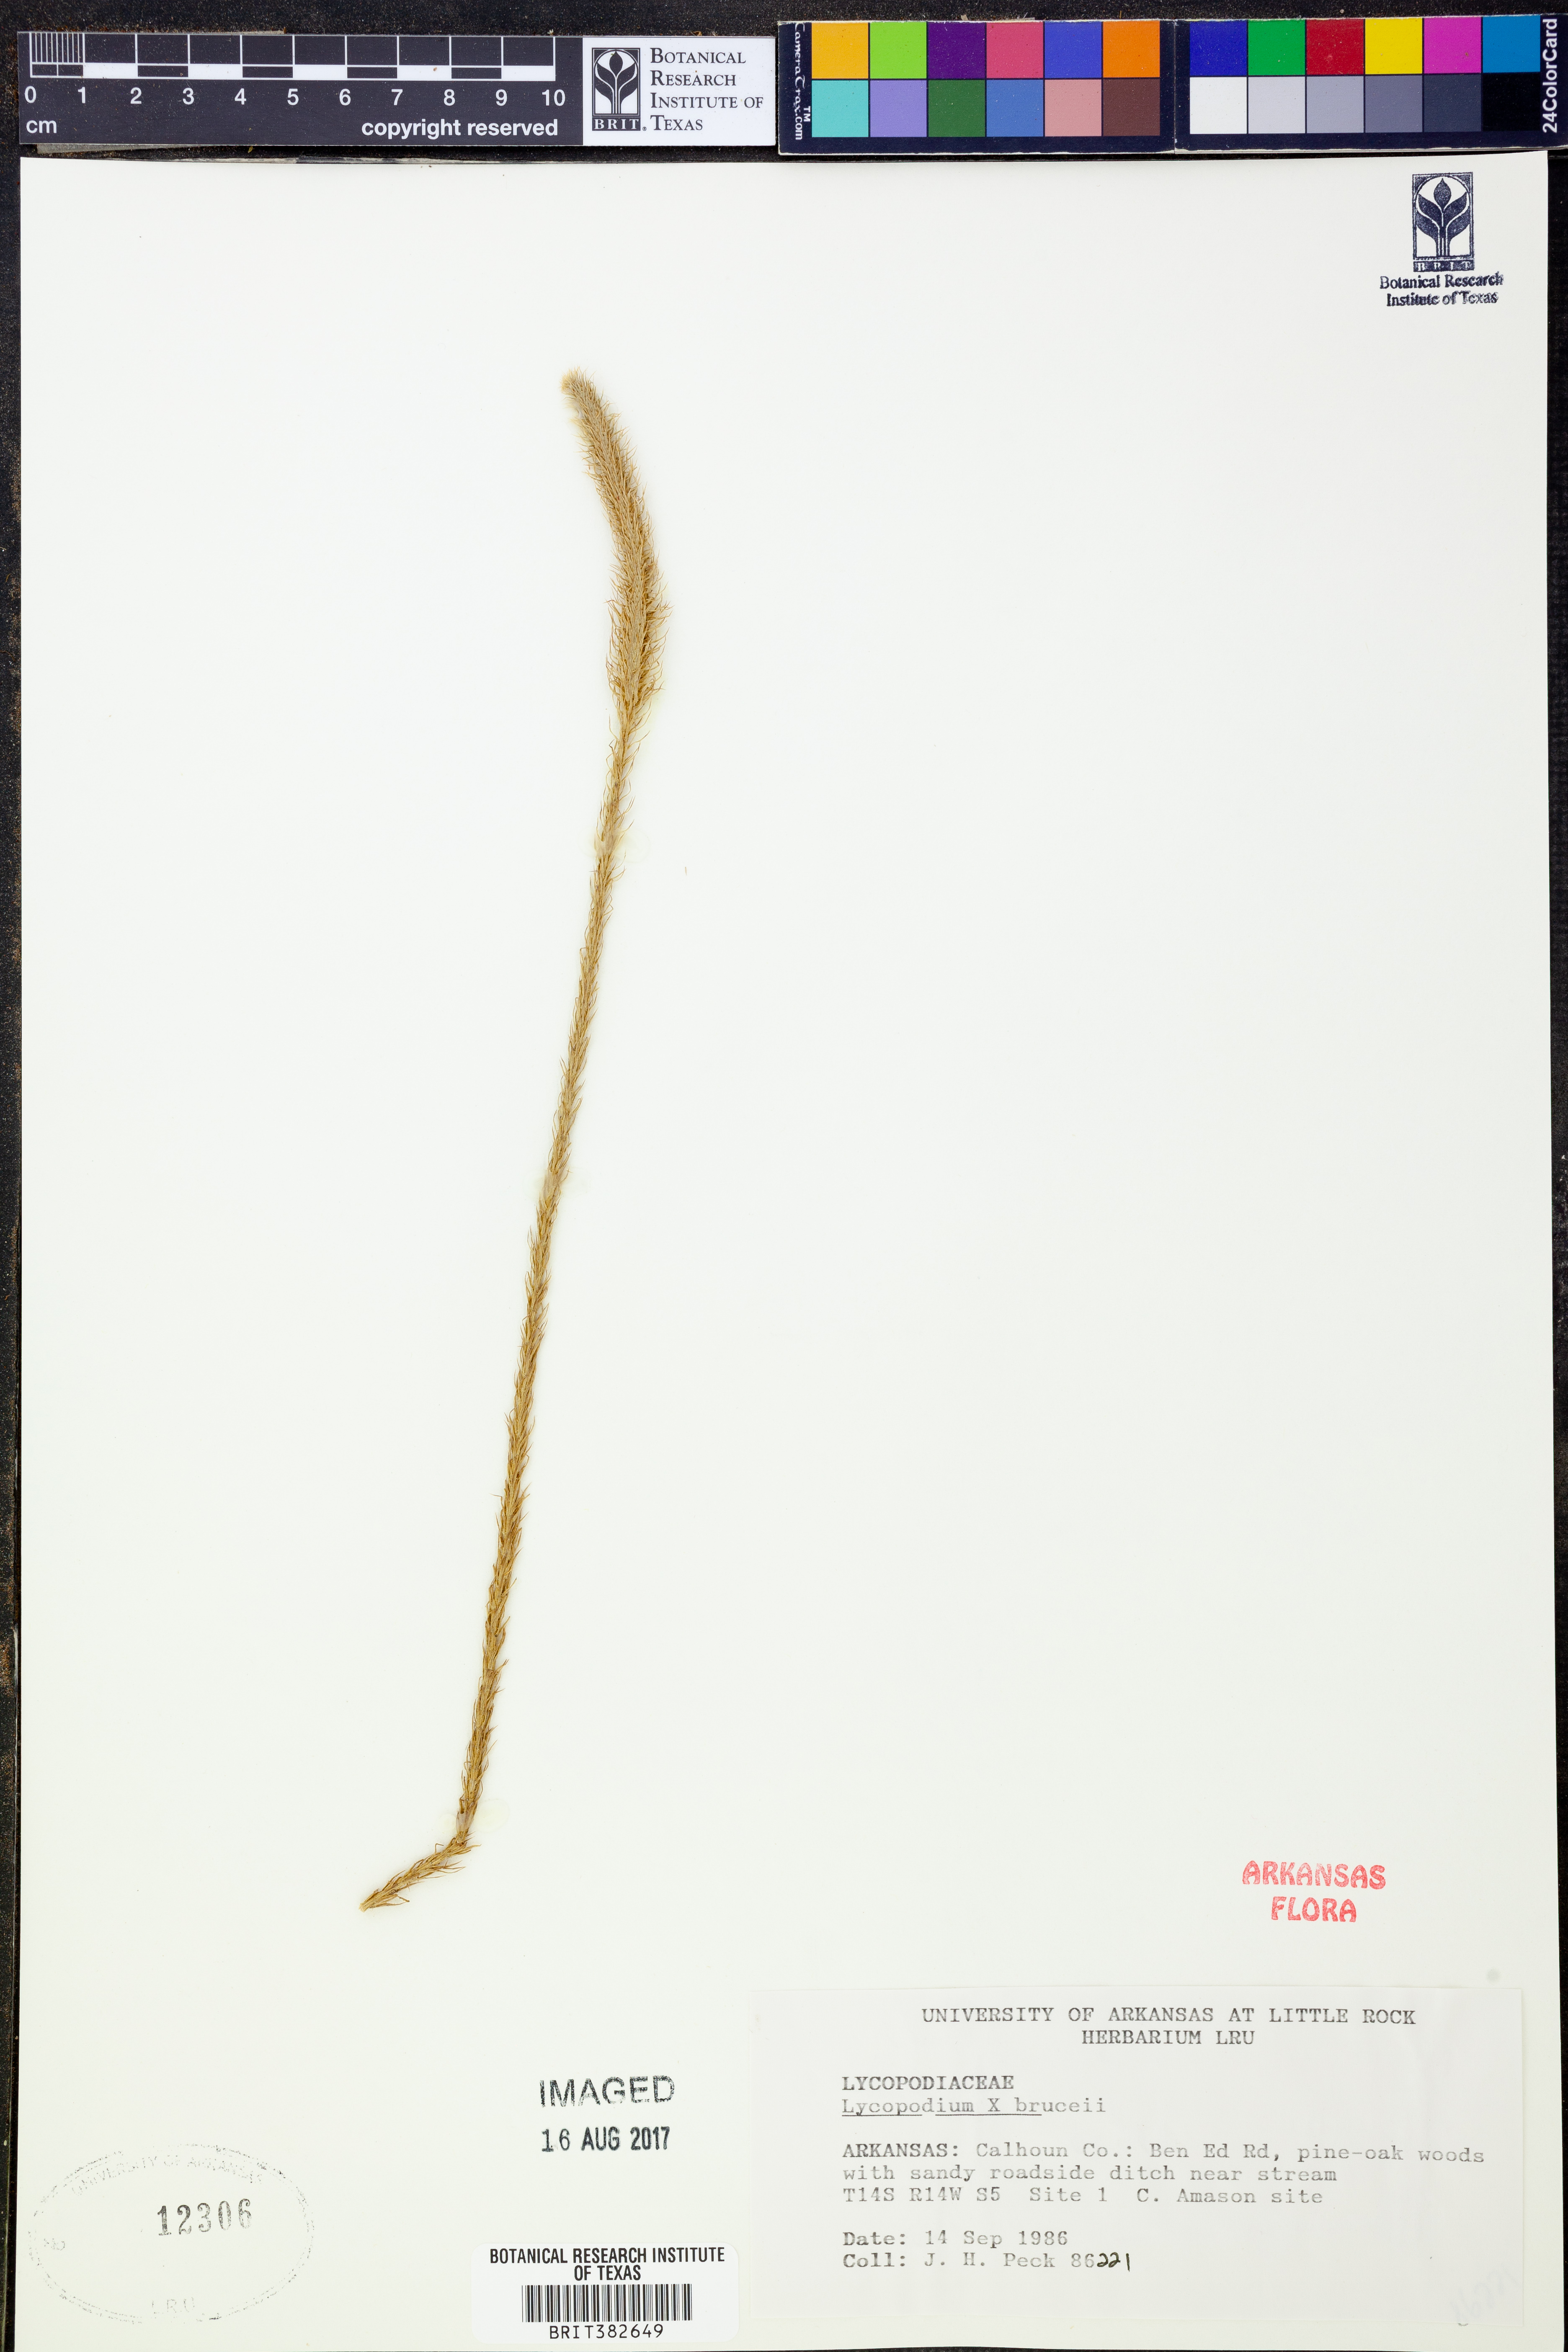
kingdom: Plantae
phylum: Tracheophyta
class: Lycopodiopsida
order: Lycopodiales
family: Lycopodiaceae
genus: Lycopodiella
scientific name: Lycopodiella brucei
